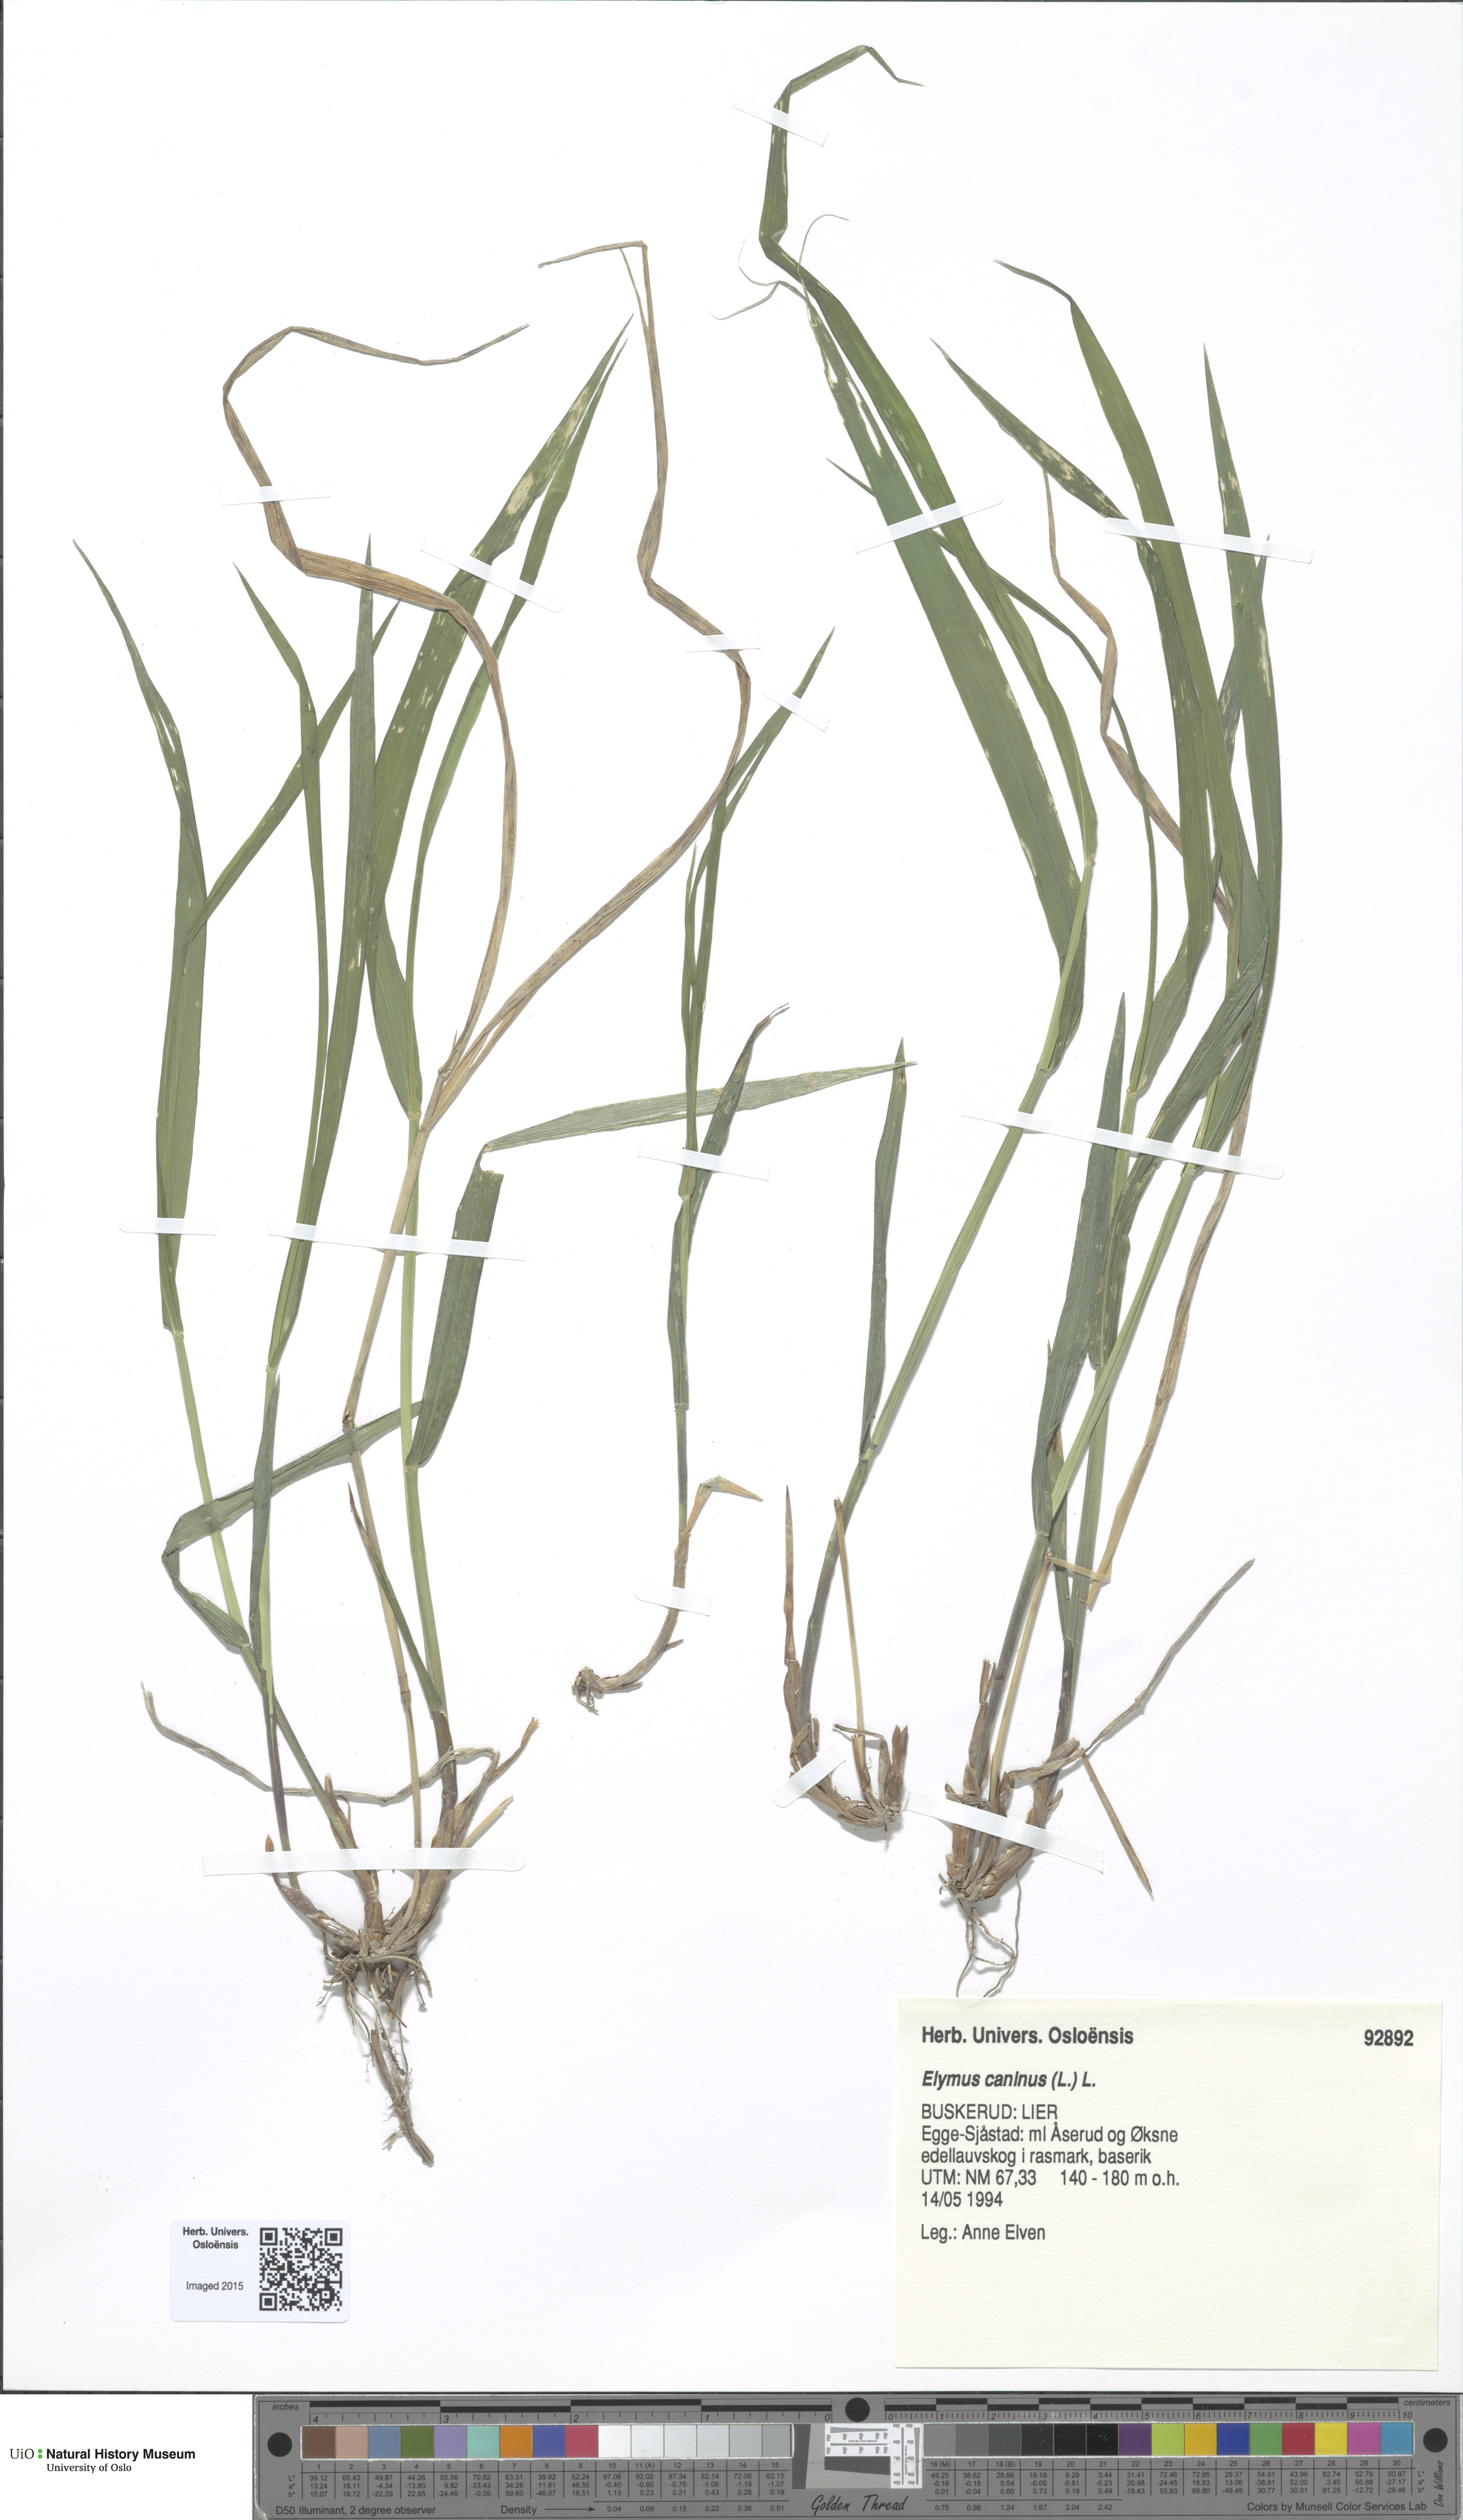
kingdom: Plantae
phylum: Tracheophyta
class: Liliopsida
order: Poales
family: Poaceae
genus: Elymus
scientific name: Elymus caninus
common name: Bearded couch
